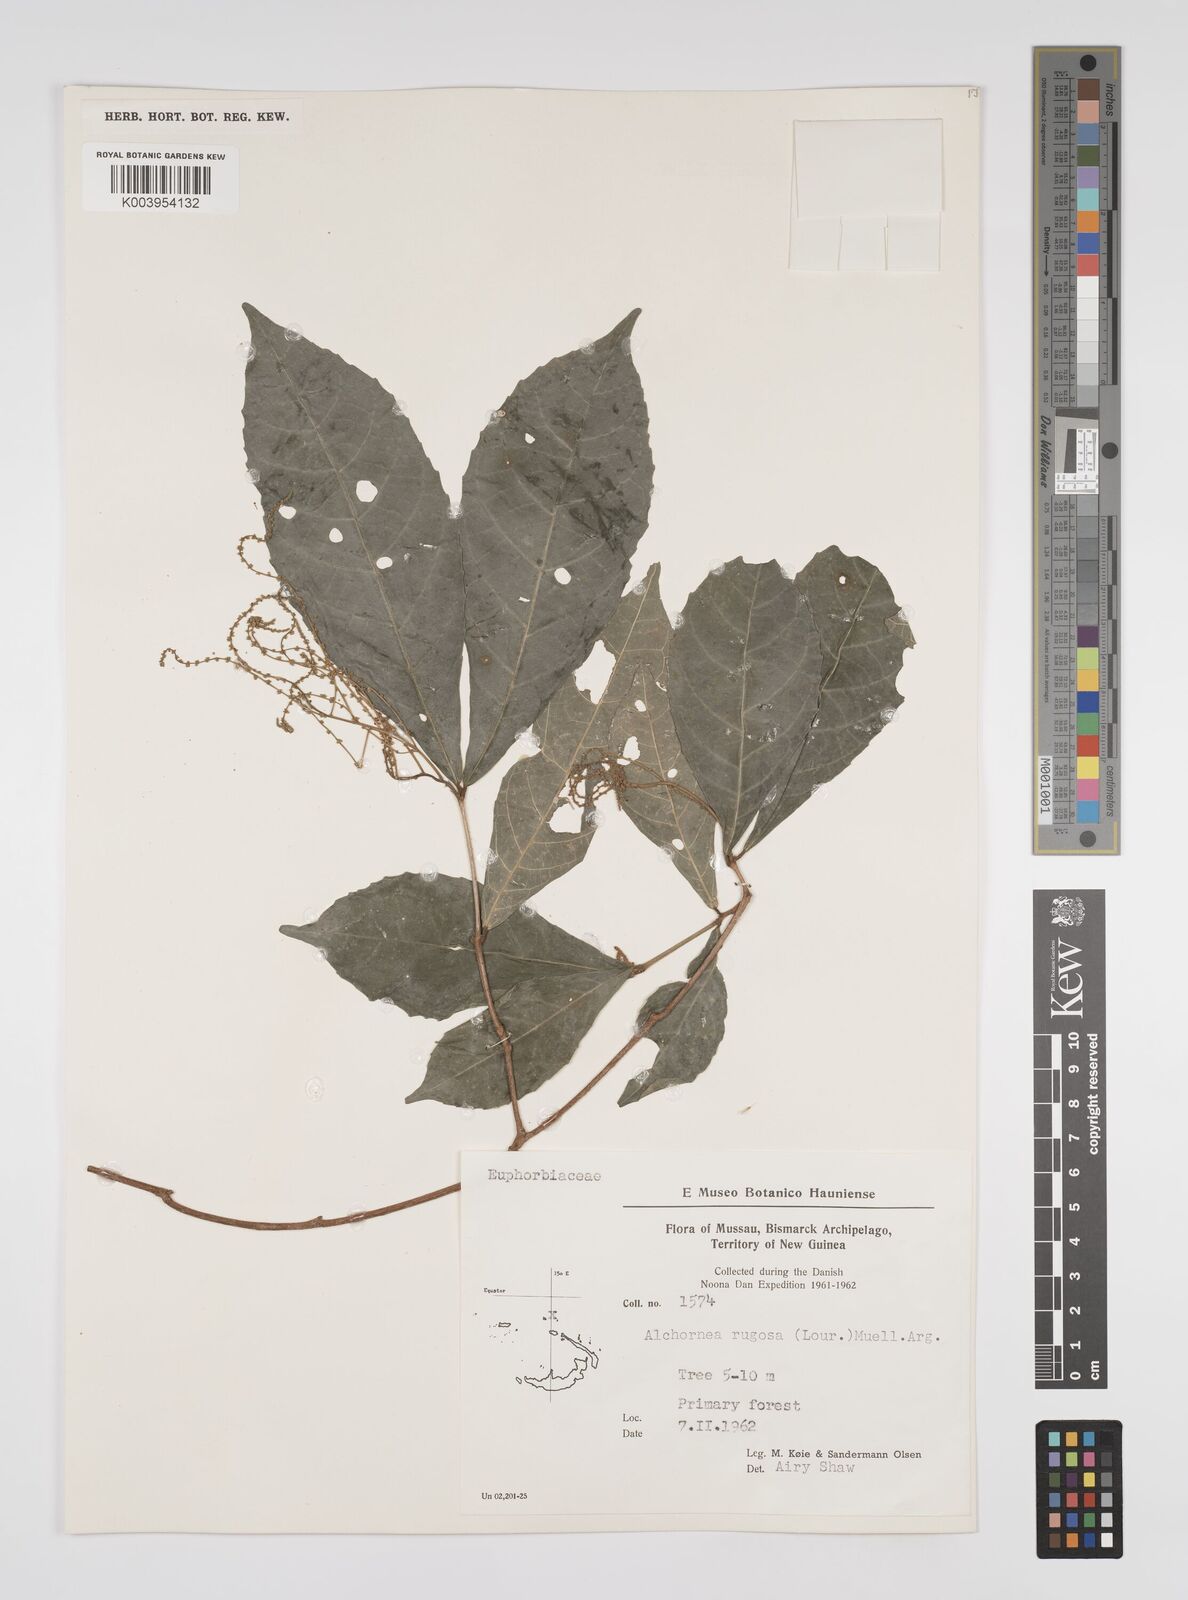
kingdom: Plantae
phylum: Tracheophyta
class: Magnoliopsida
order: Malpighiales
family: Euphorbiaceae
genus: Alchornea
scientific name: Alchornea rugosa
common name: Alchorntree
